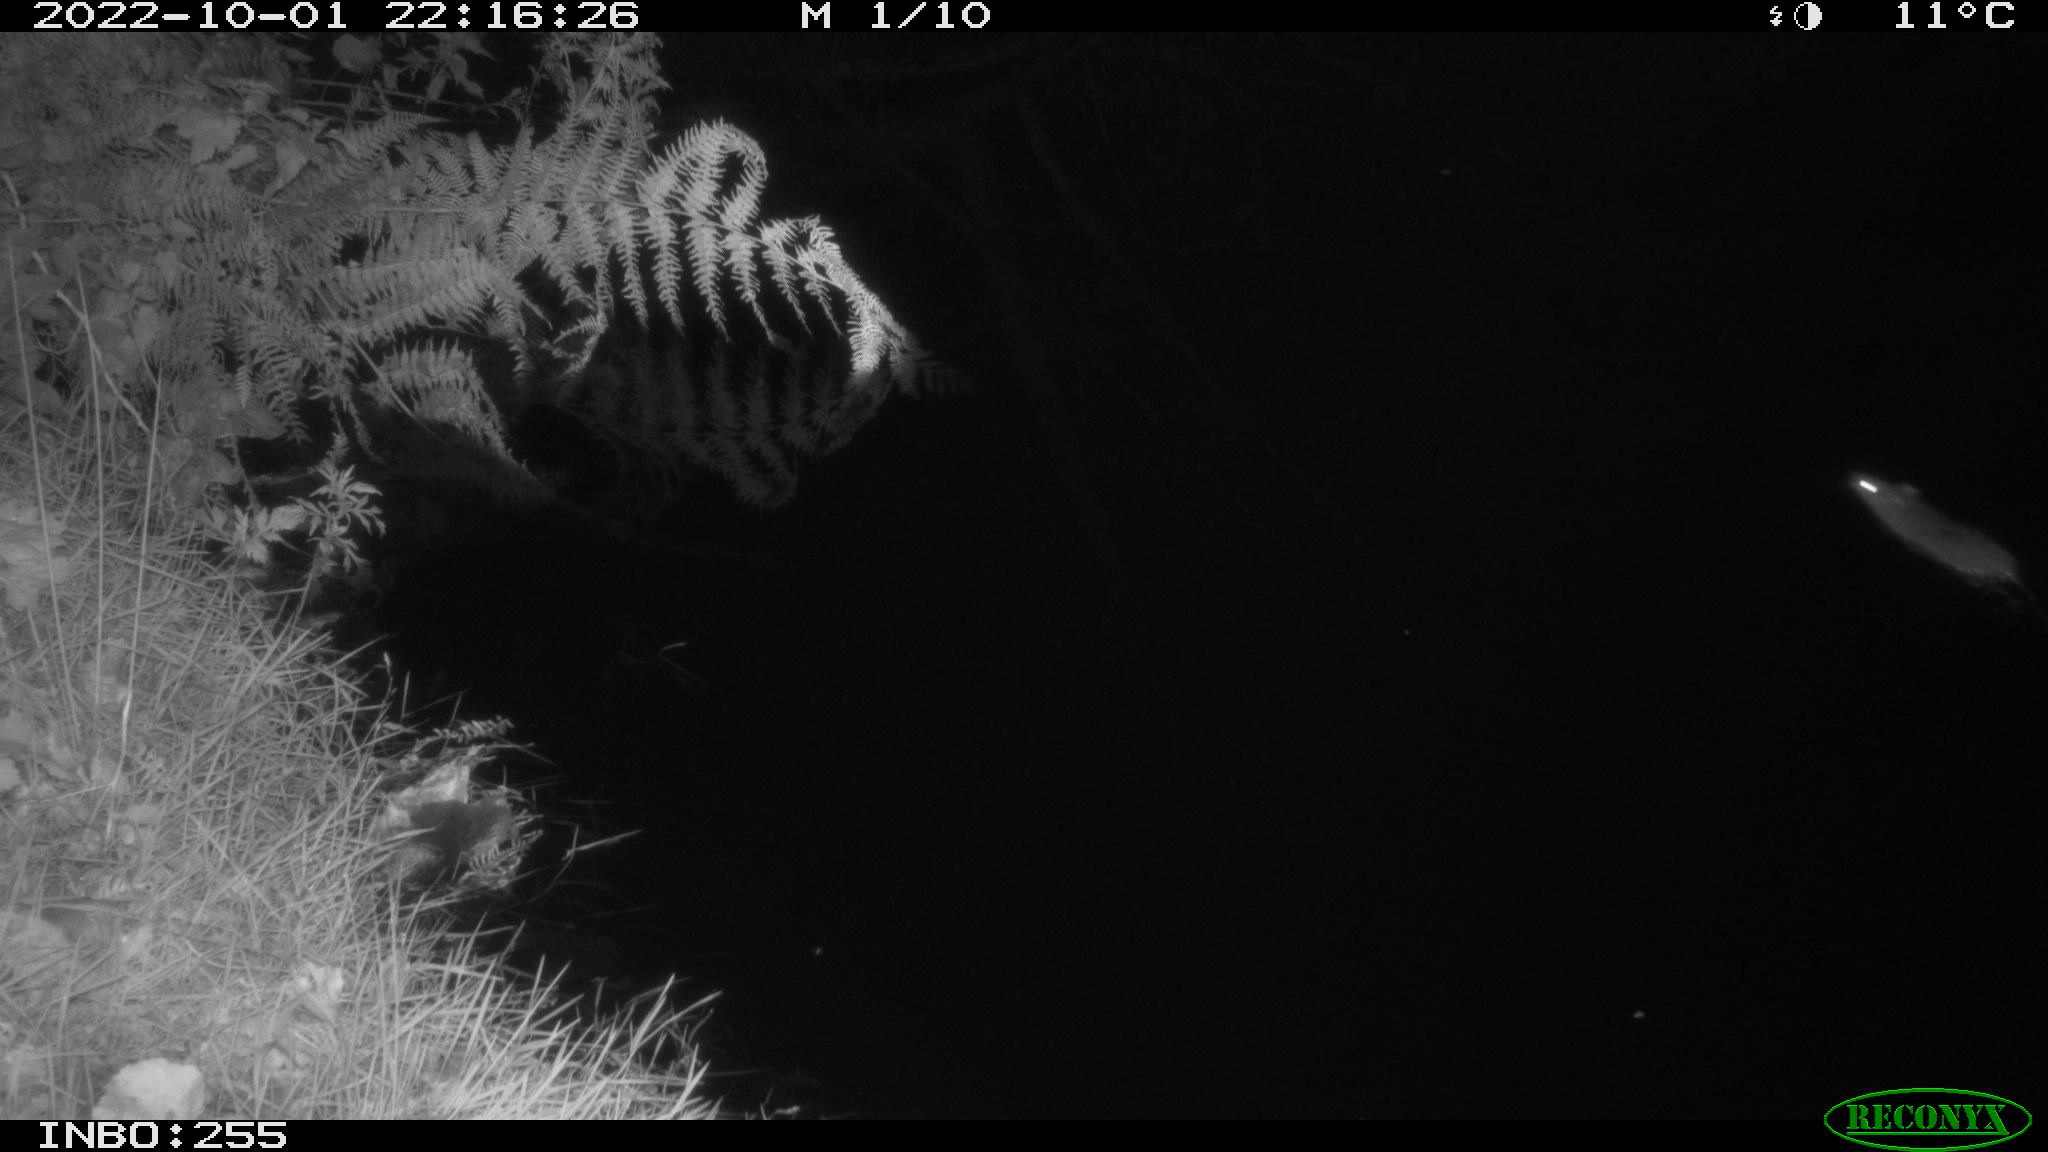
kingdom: Animalia
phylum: Chordata
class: Mammalia
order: Rodentia
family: Muridae
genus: Rattus
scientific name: Rattus norvegicus
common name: Brown rat
